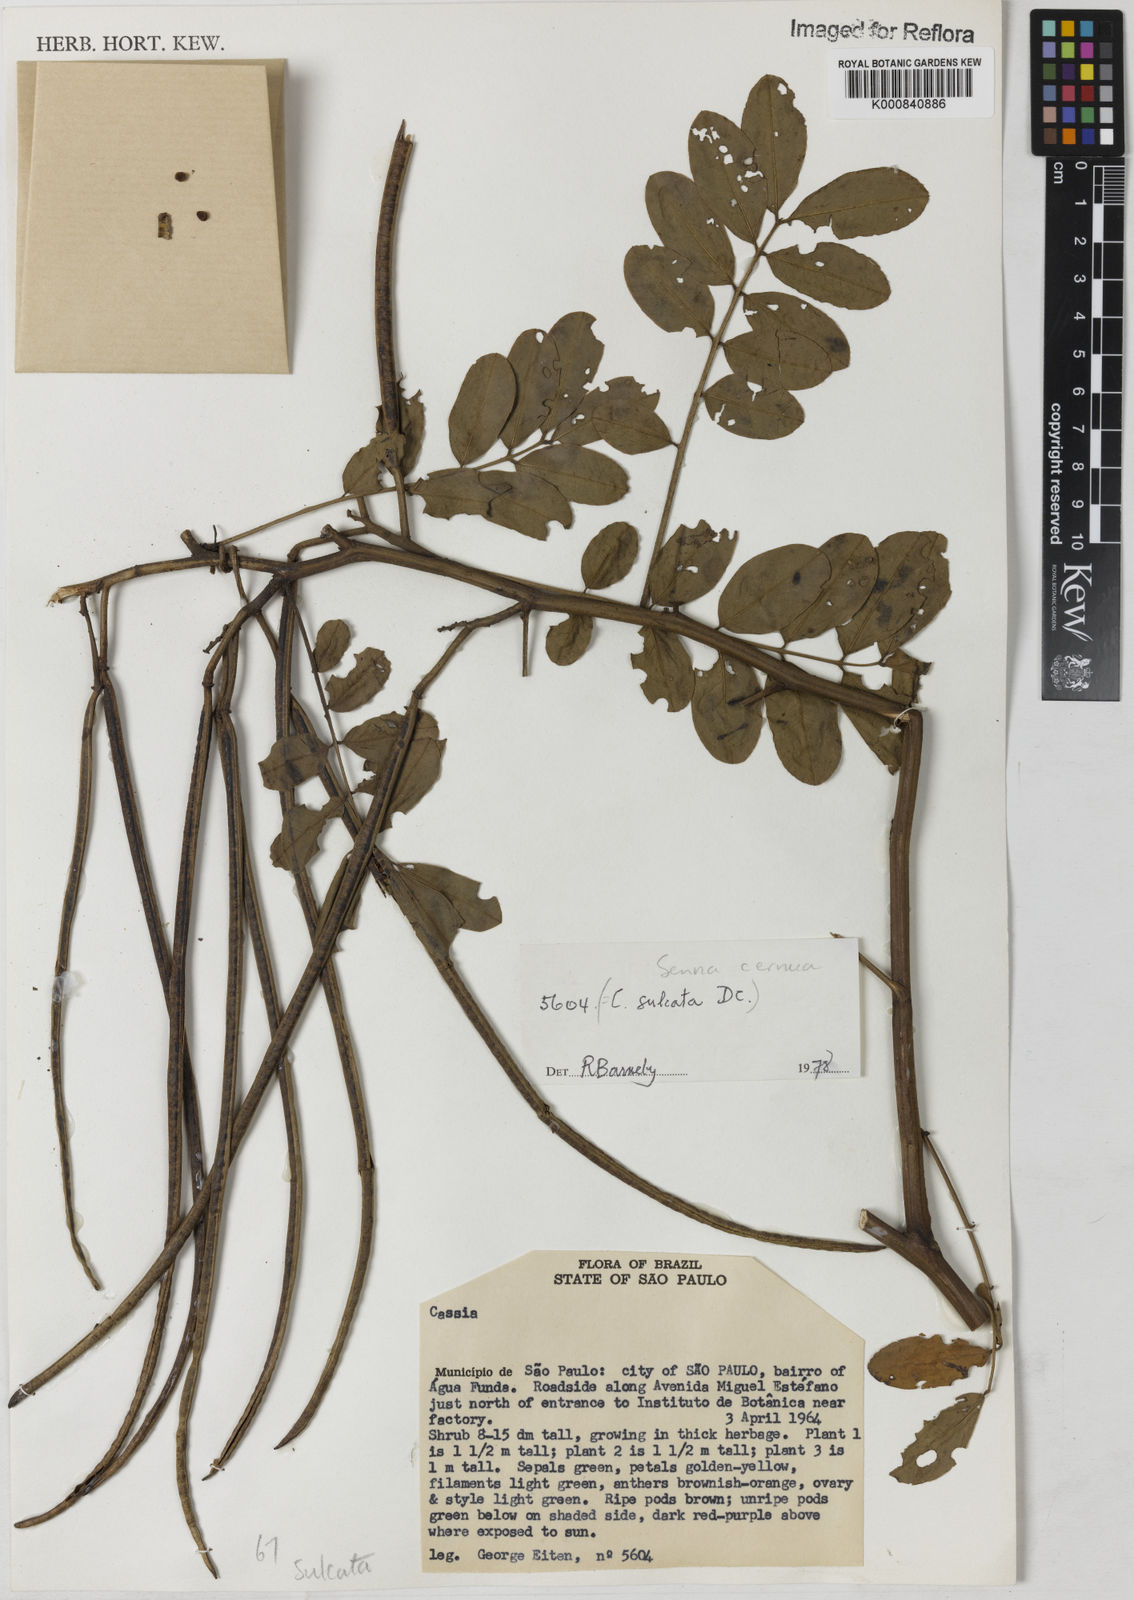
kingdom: Plantae
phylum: Tracheophyta
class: Magnoliopsida
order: Fabales
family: Fabaceae
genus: Senna
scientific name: Senna cernua
